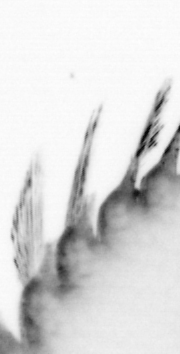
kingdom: Animalia
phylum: Annelida
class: Polychaeta
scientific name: Polychaeta
